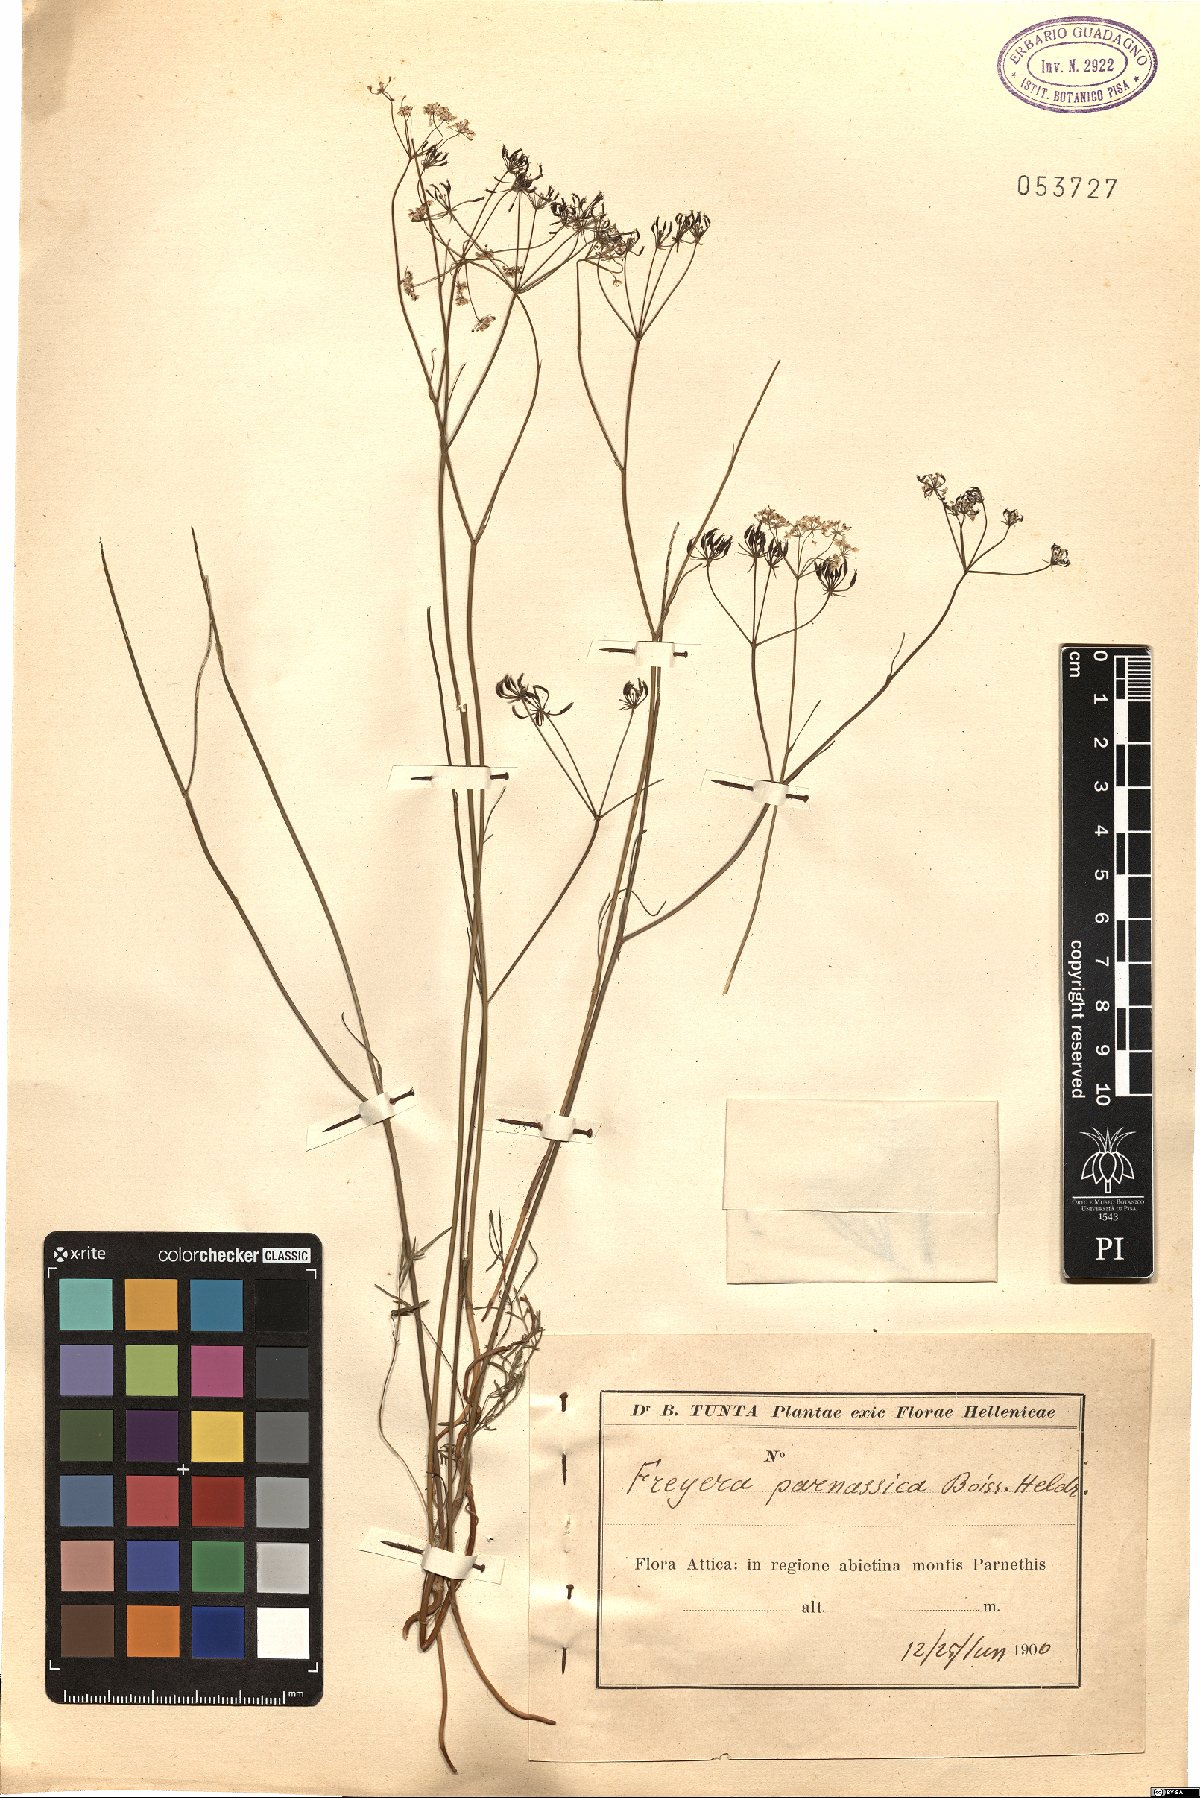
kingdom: Plantae
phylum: Tracheophyta
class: Magnoliopsida
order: Apiales
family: Apiaceae
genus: Geocaryum
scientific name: Geocaryum parnassicum
